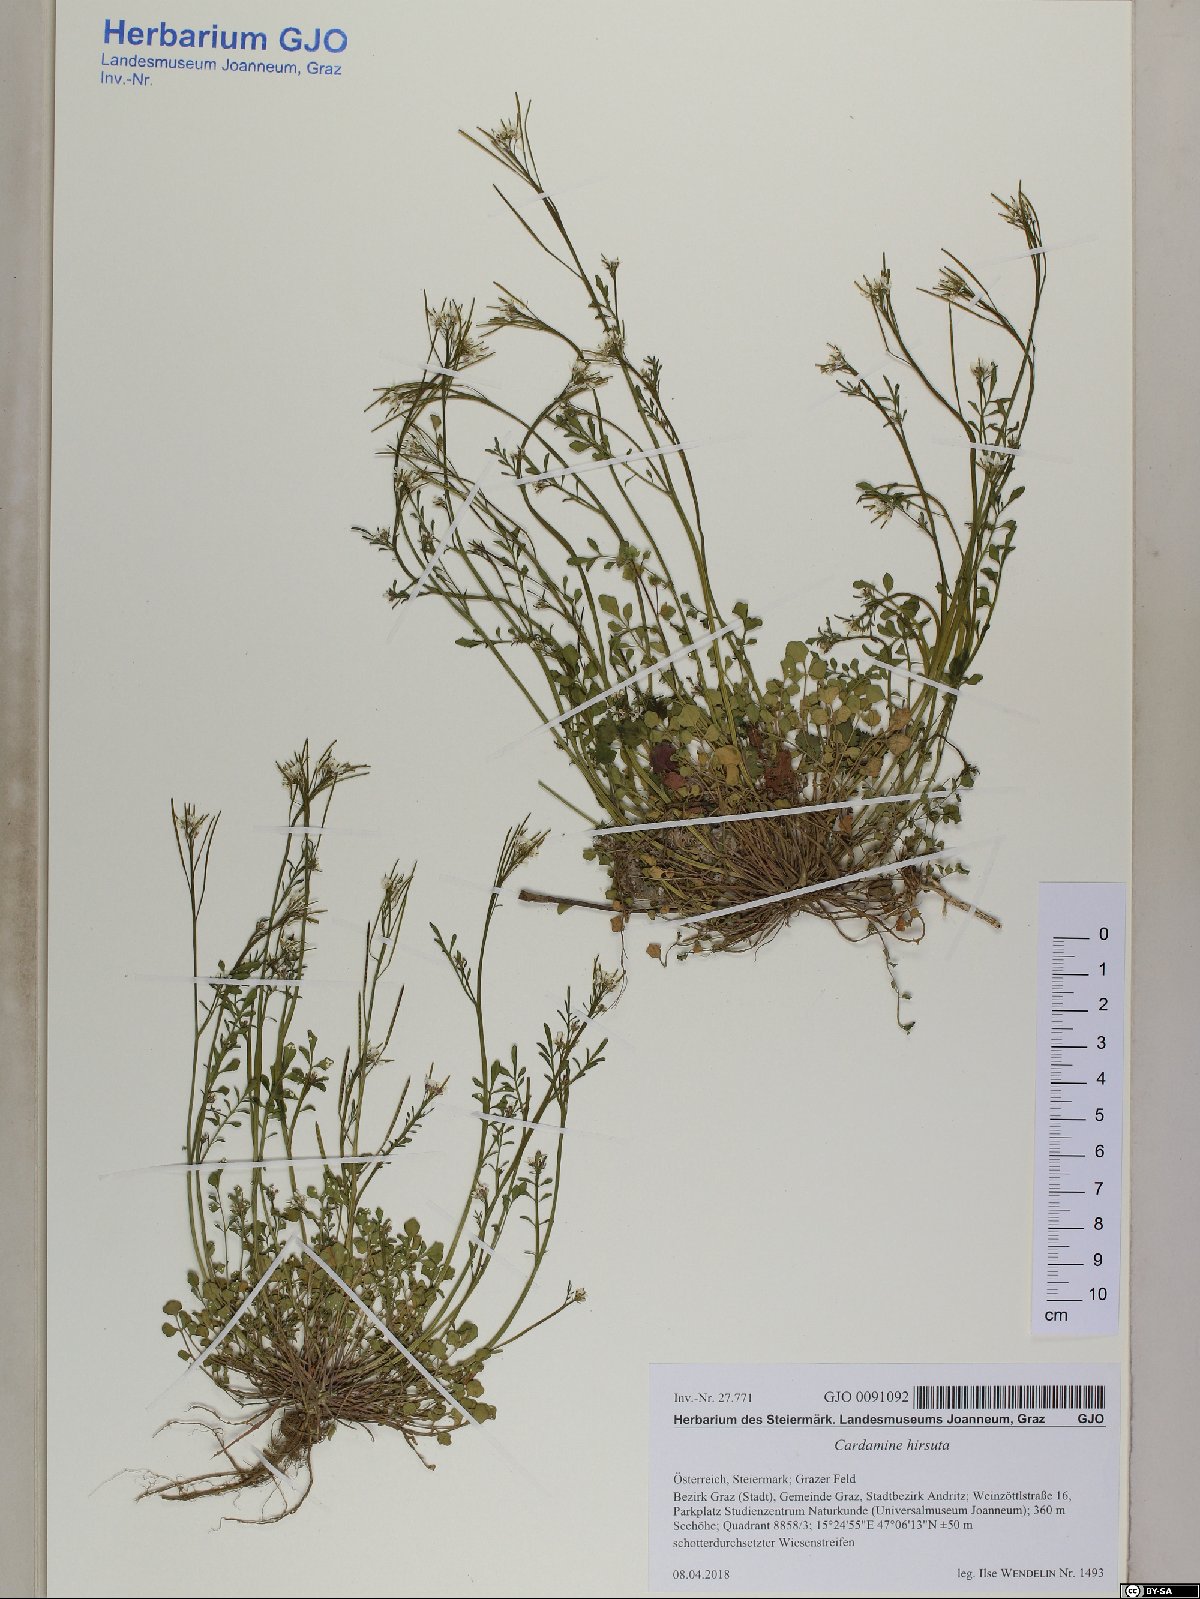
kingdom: Plantae
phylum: Tracheophyta
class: Magnoliopsida
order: Brassicales
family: Brassicaceae
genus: Cardamine
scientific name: Cardamine hirsuta
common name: Hairy bittercress
